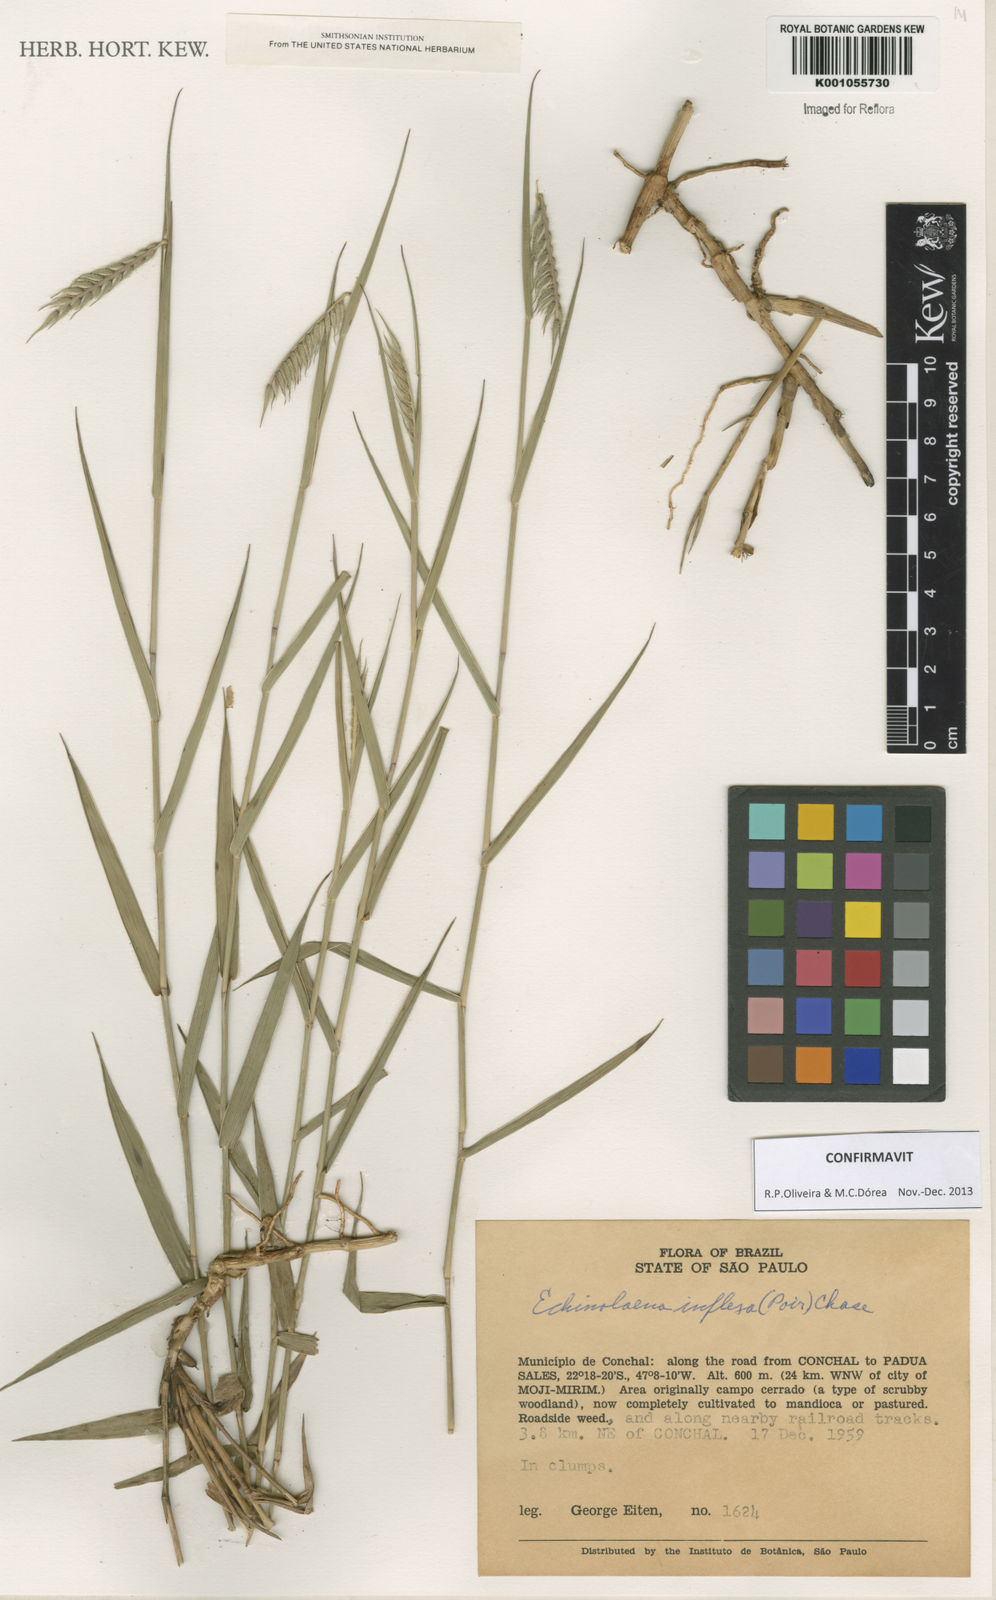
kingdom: Plantae
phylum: Tracheophyta
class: Liliopsida
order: Poales
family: Poaceae
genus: Echinolaena
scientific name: Echinolaena inflexa
